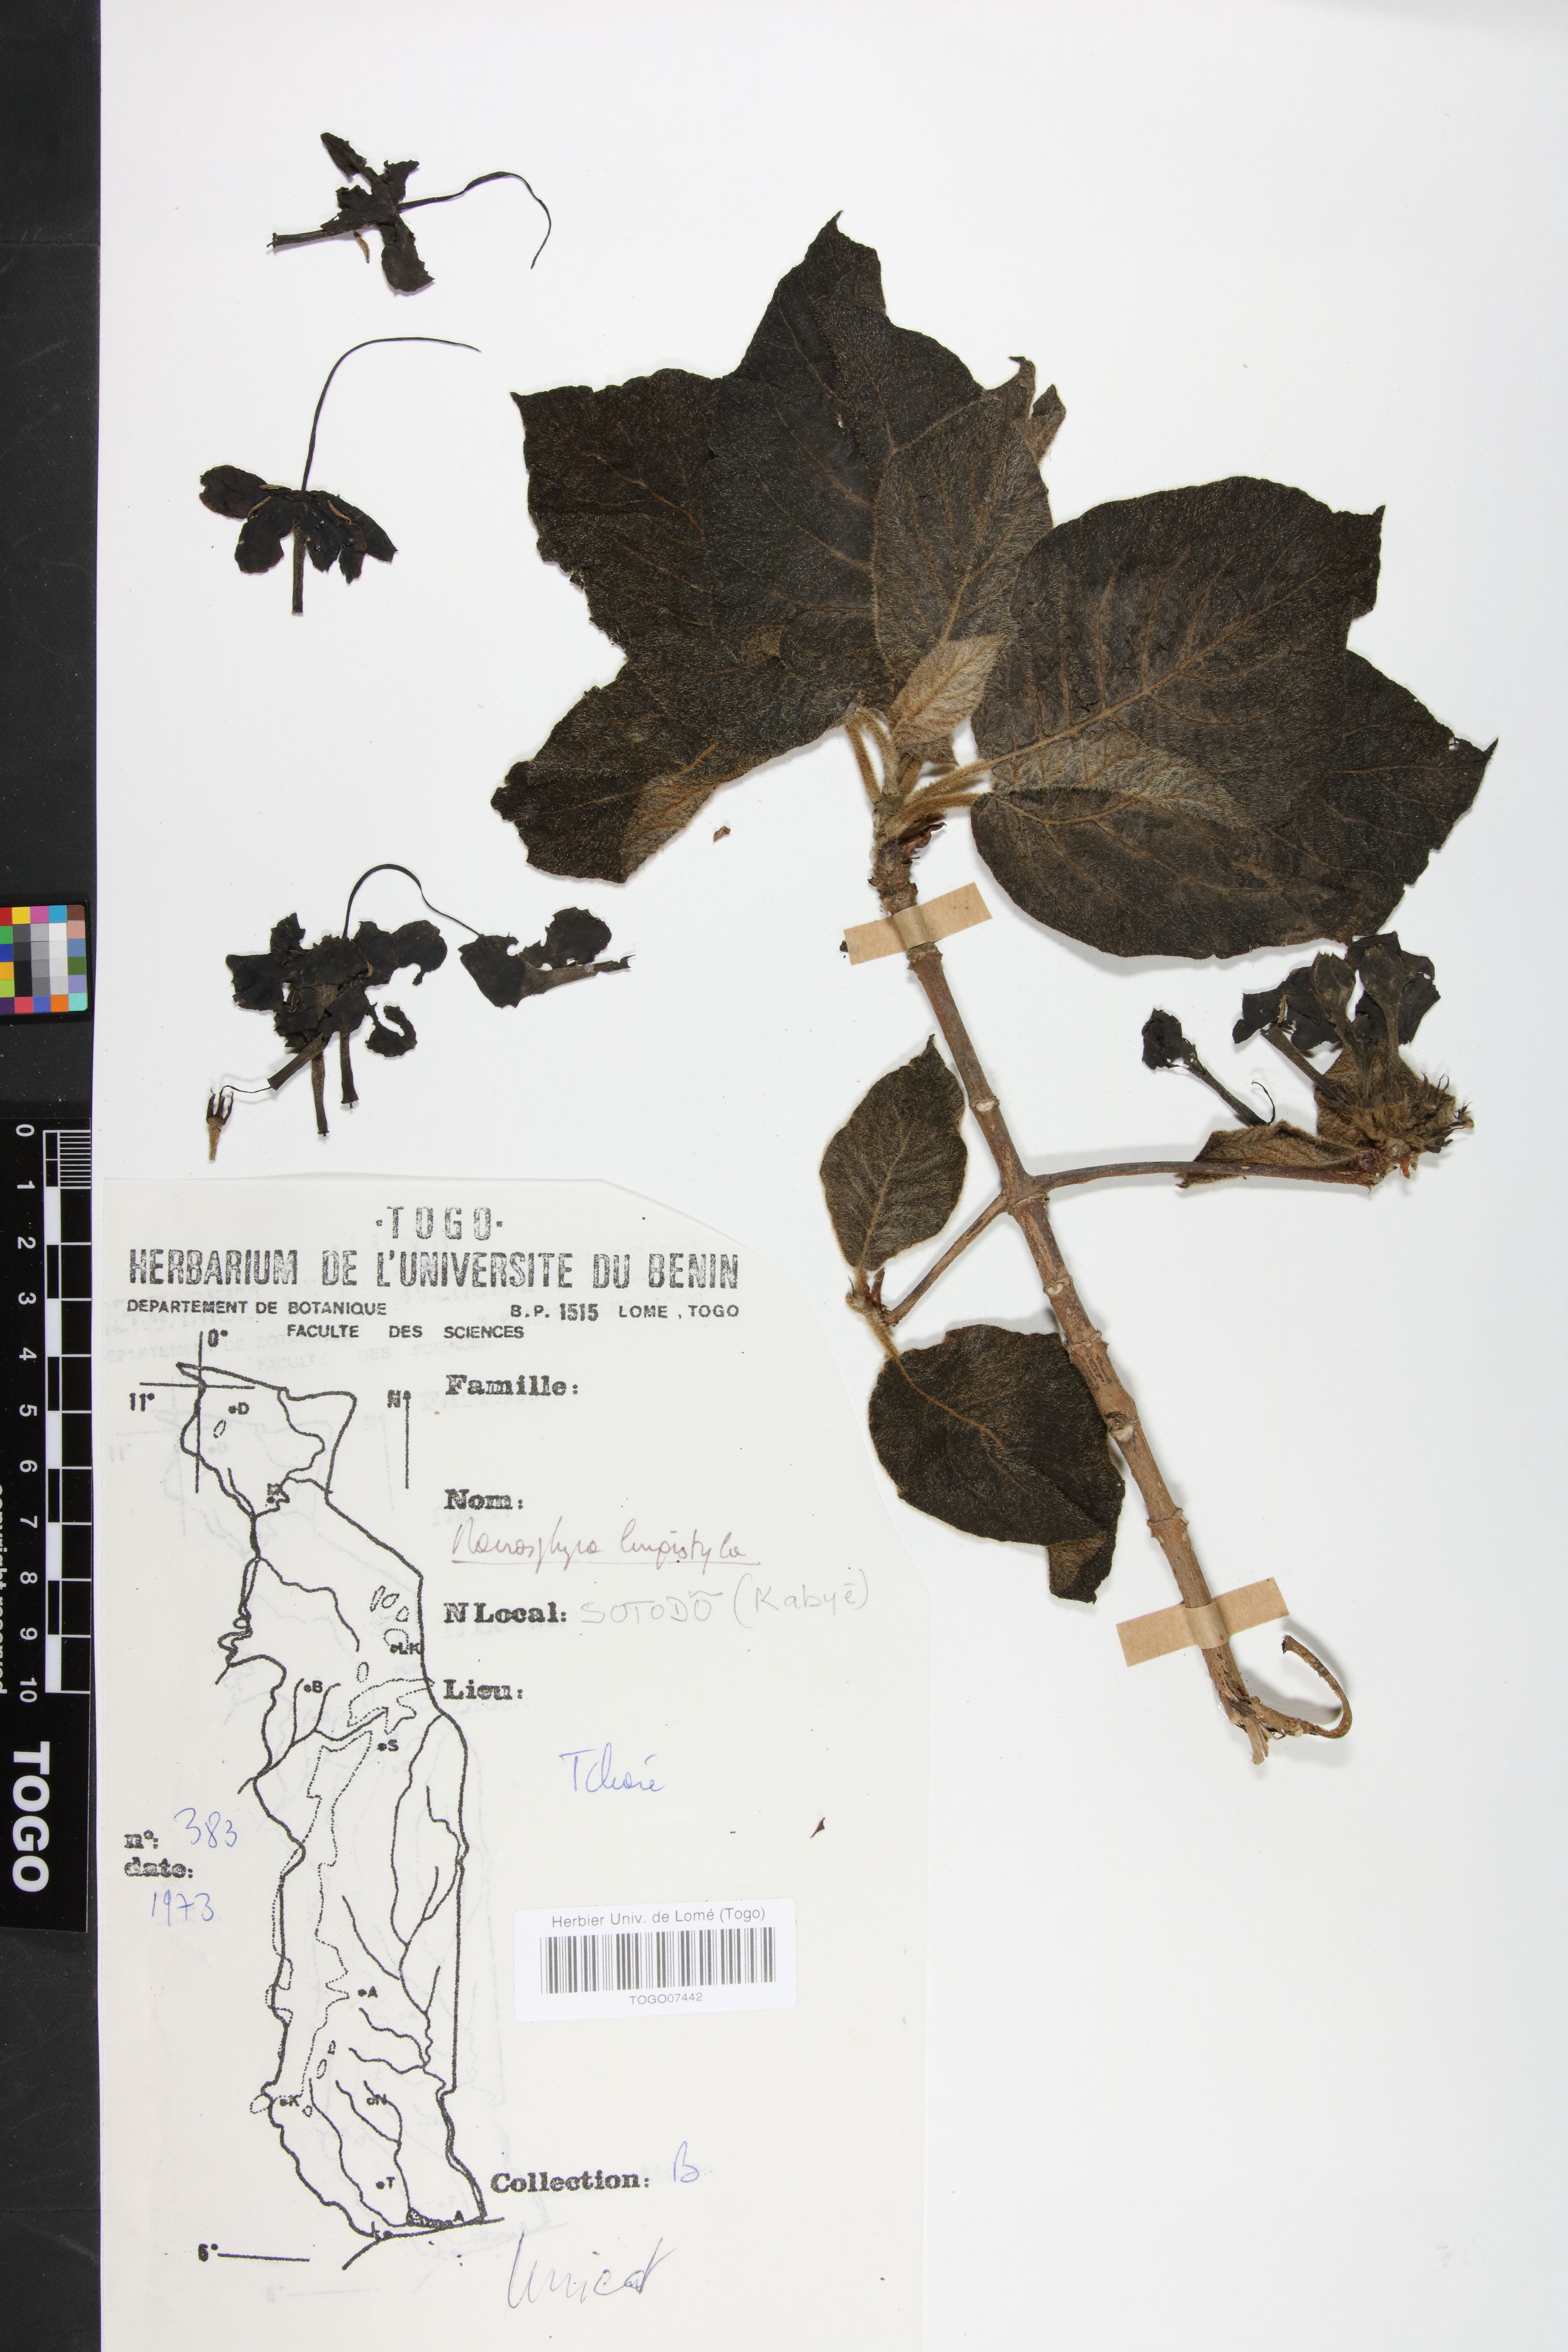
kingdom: Plantae
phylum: Tracheophyta
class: Magnoliopsida
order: Gentianales
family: Rubiaceae
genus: Macrosphyra
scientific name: Macrosphyra longistyla
